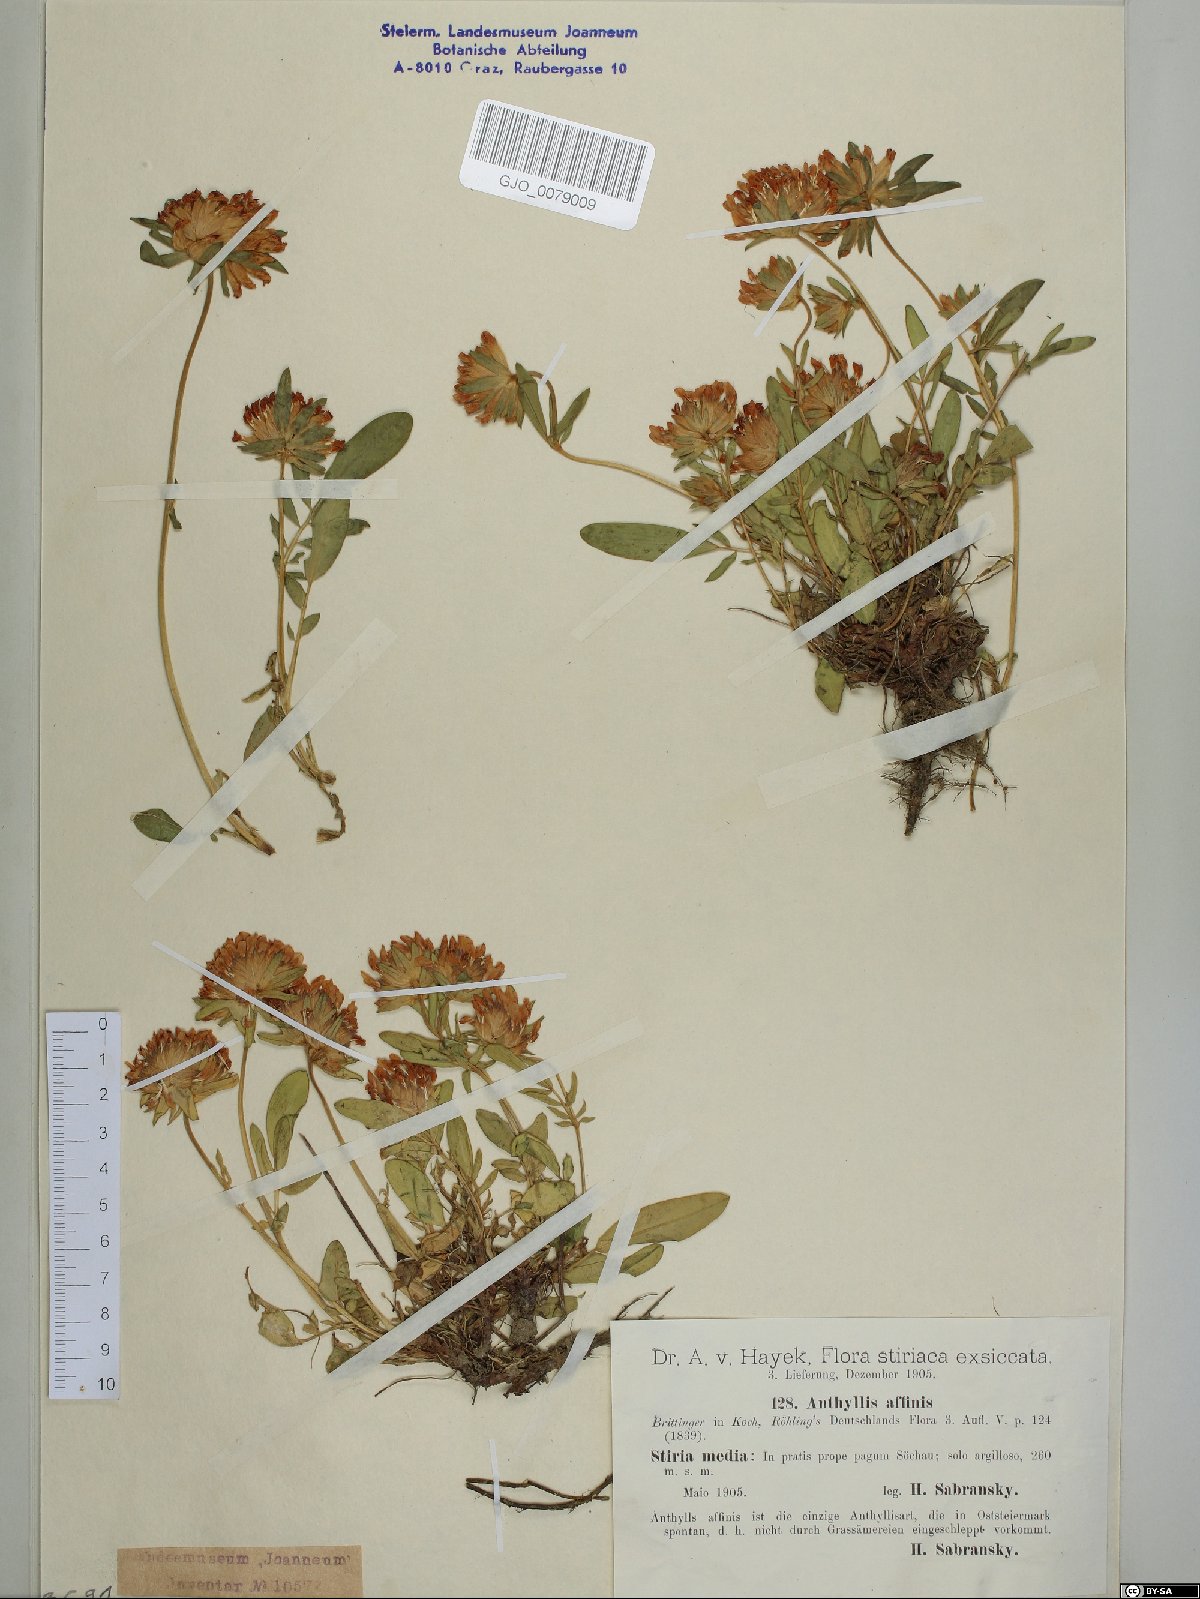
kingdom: Plantae
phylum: Tracheophyta
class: Magnoliopsida
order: Fabales
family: Fabaceae
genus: Anthyllis
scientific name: Anthyllis vulneraria
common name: Kidney vetch
